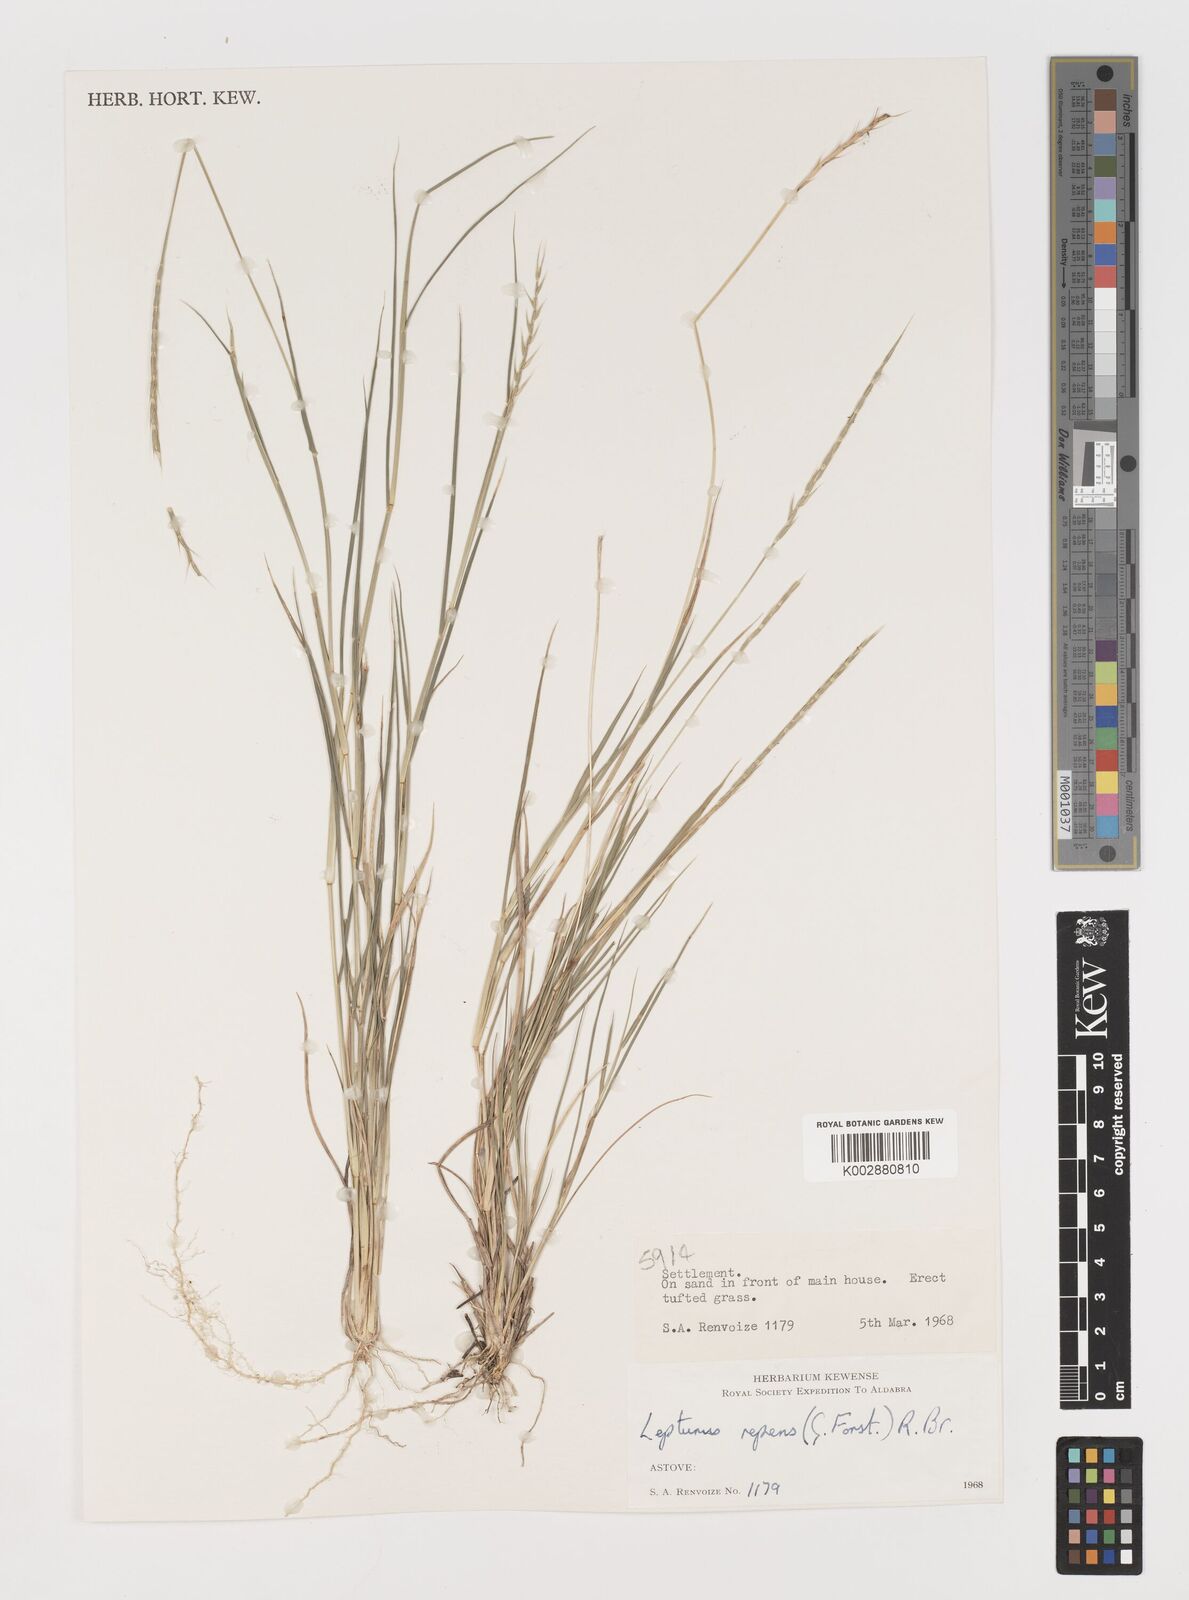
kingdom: Plantae
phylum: Tracheophyta
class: Liliopsida
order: Poales
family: Poaceae
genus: Lepturus
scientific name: Lepturus repens
